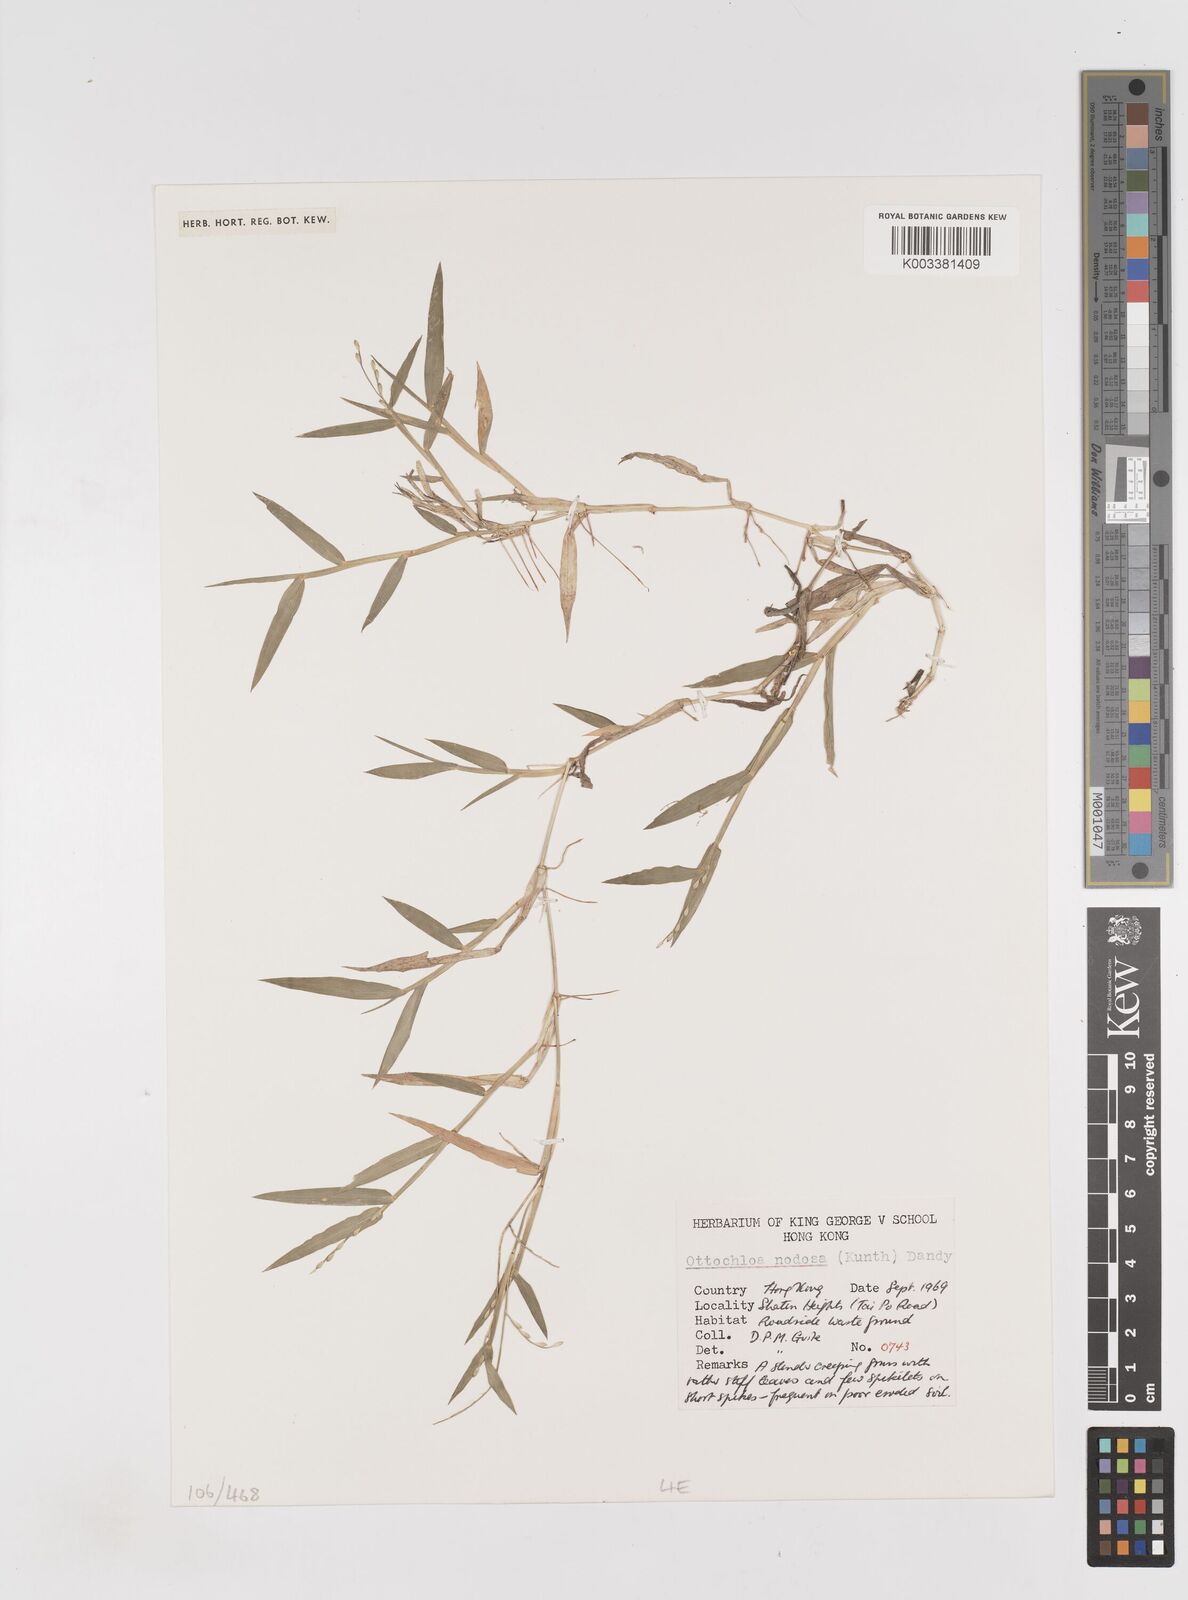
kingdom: Plantae
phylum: Tracheophyta
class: Liliopsida
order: Poales
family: Poaceae
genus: Ottochloa
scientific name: Ottochloa nodosa
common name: Slender-panic grass
